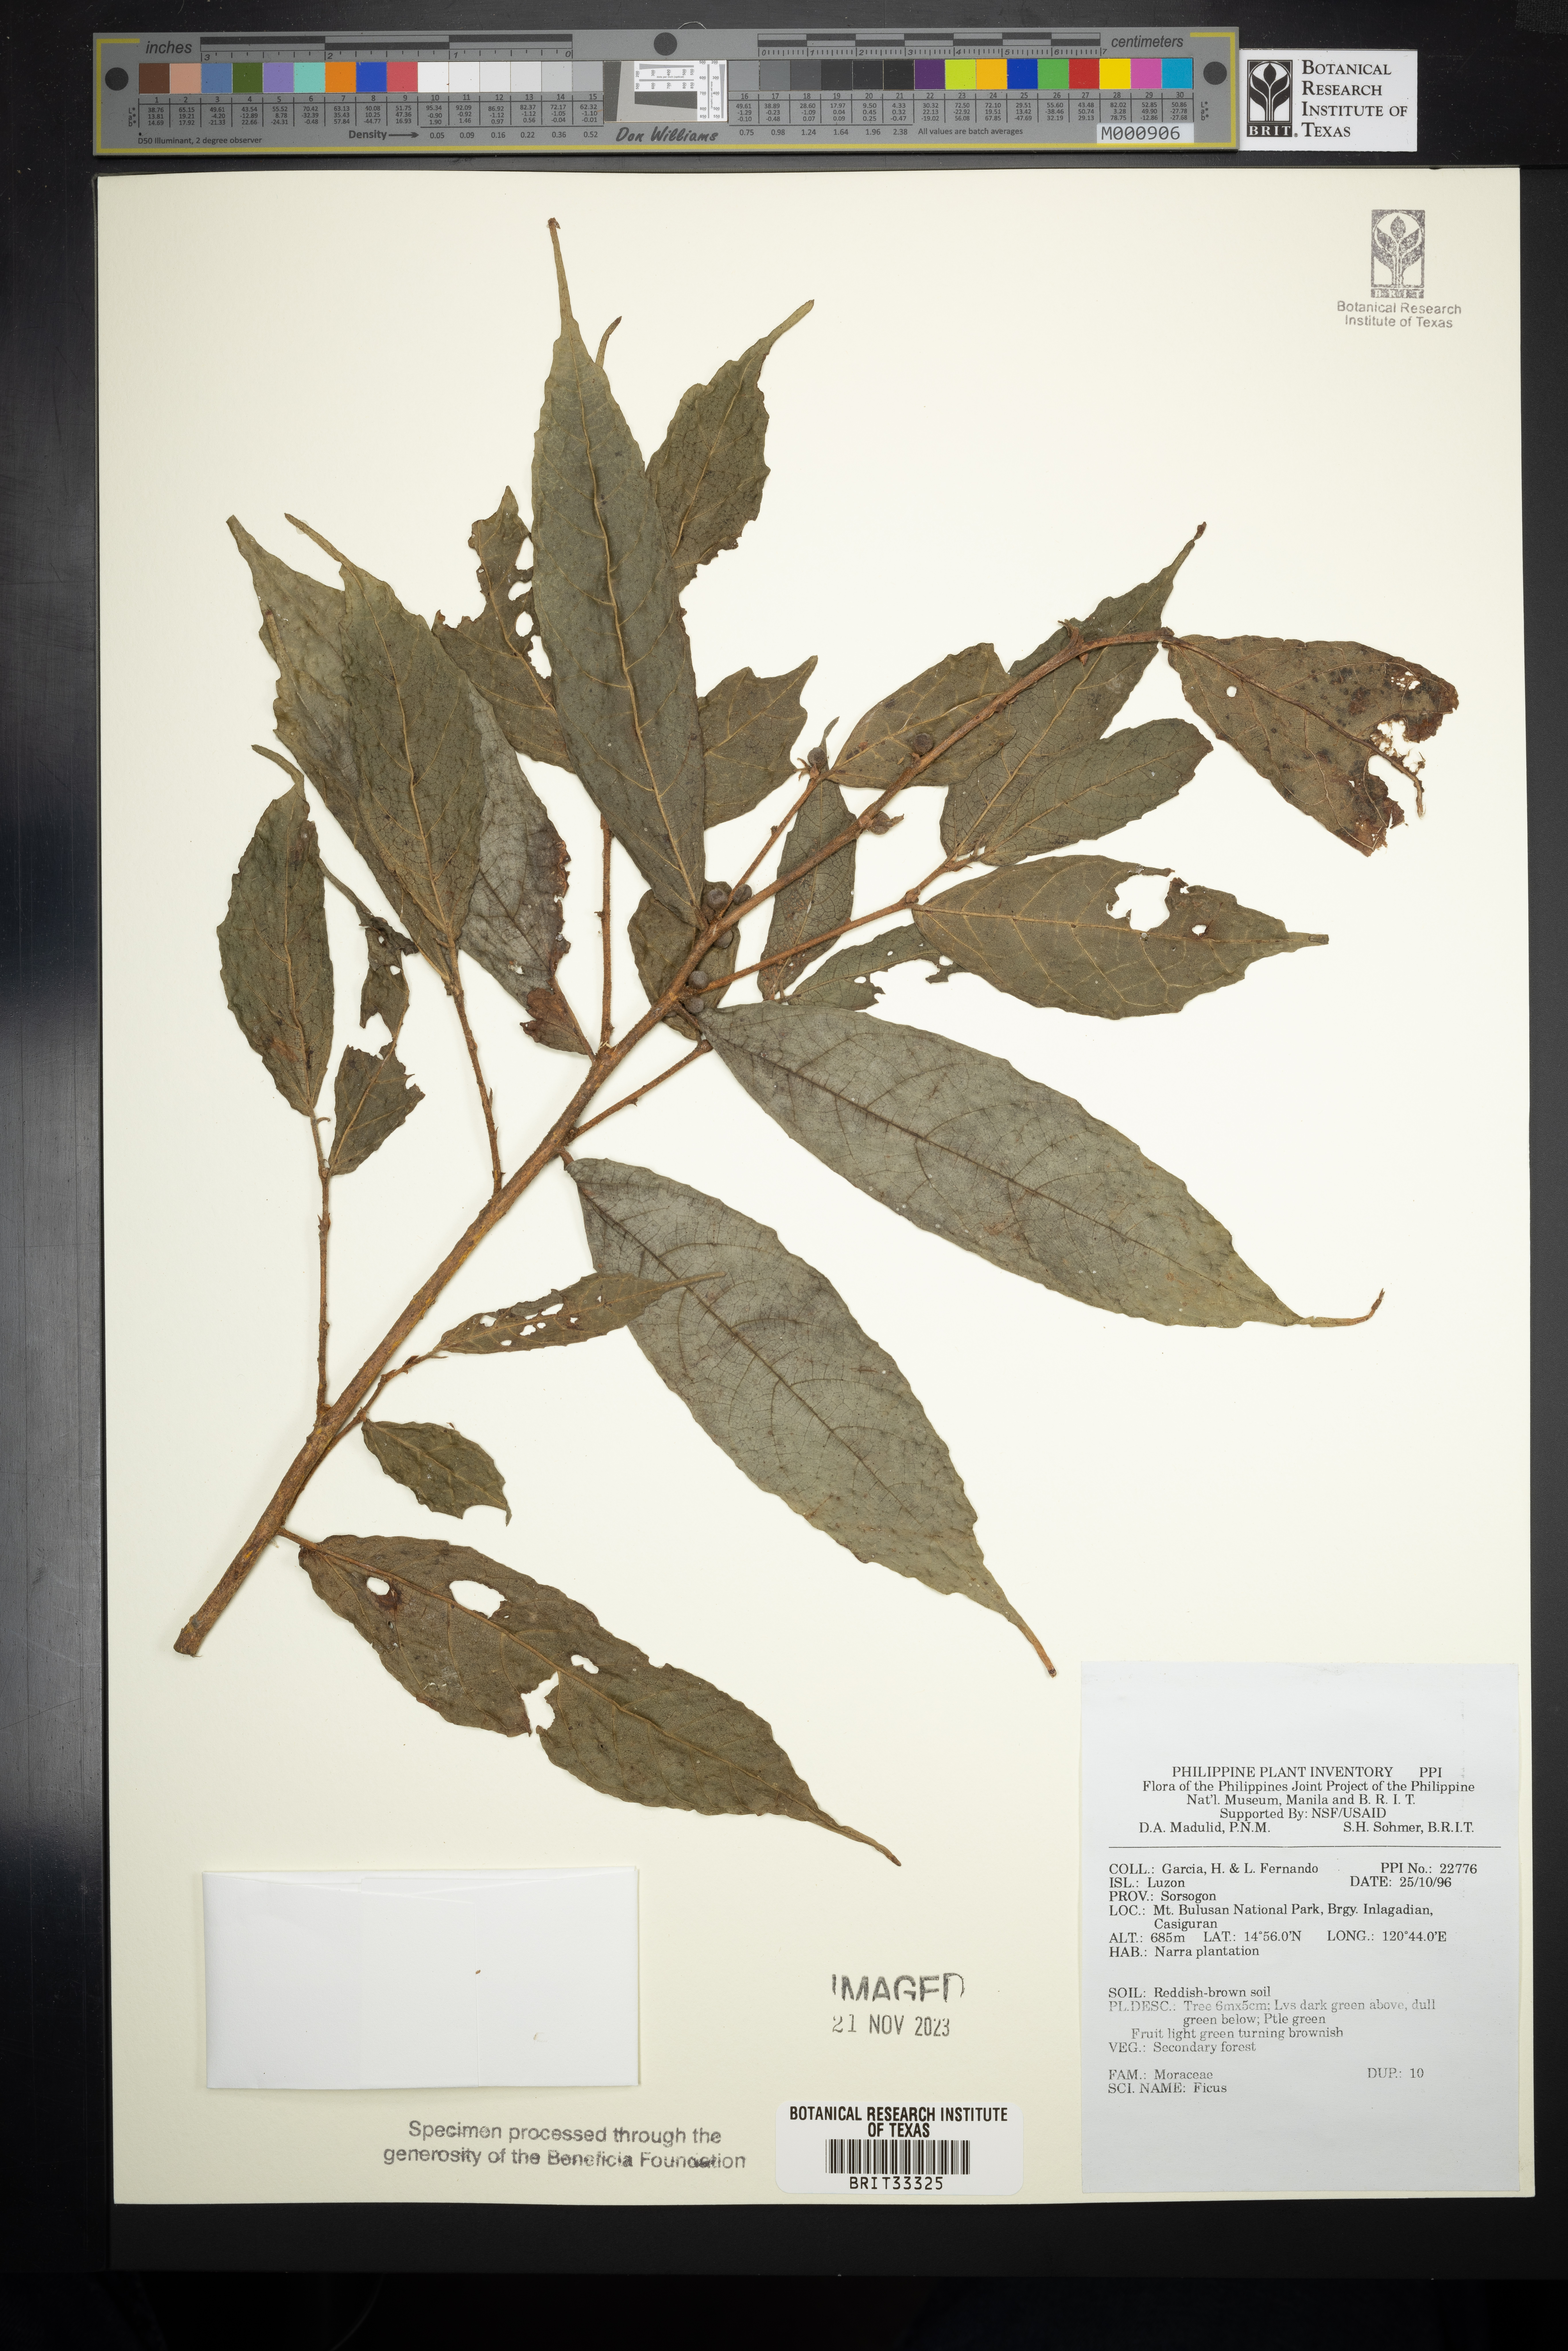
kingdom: Plantae
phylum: Tracheophyta
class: Magnoliopsida
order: Rosales
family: Moraceae
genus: Ficus
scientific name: Ficus
